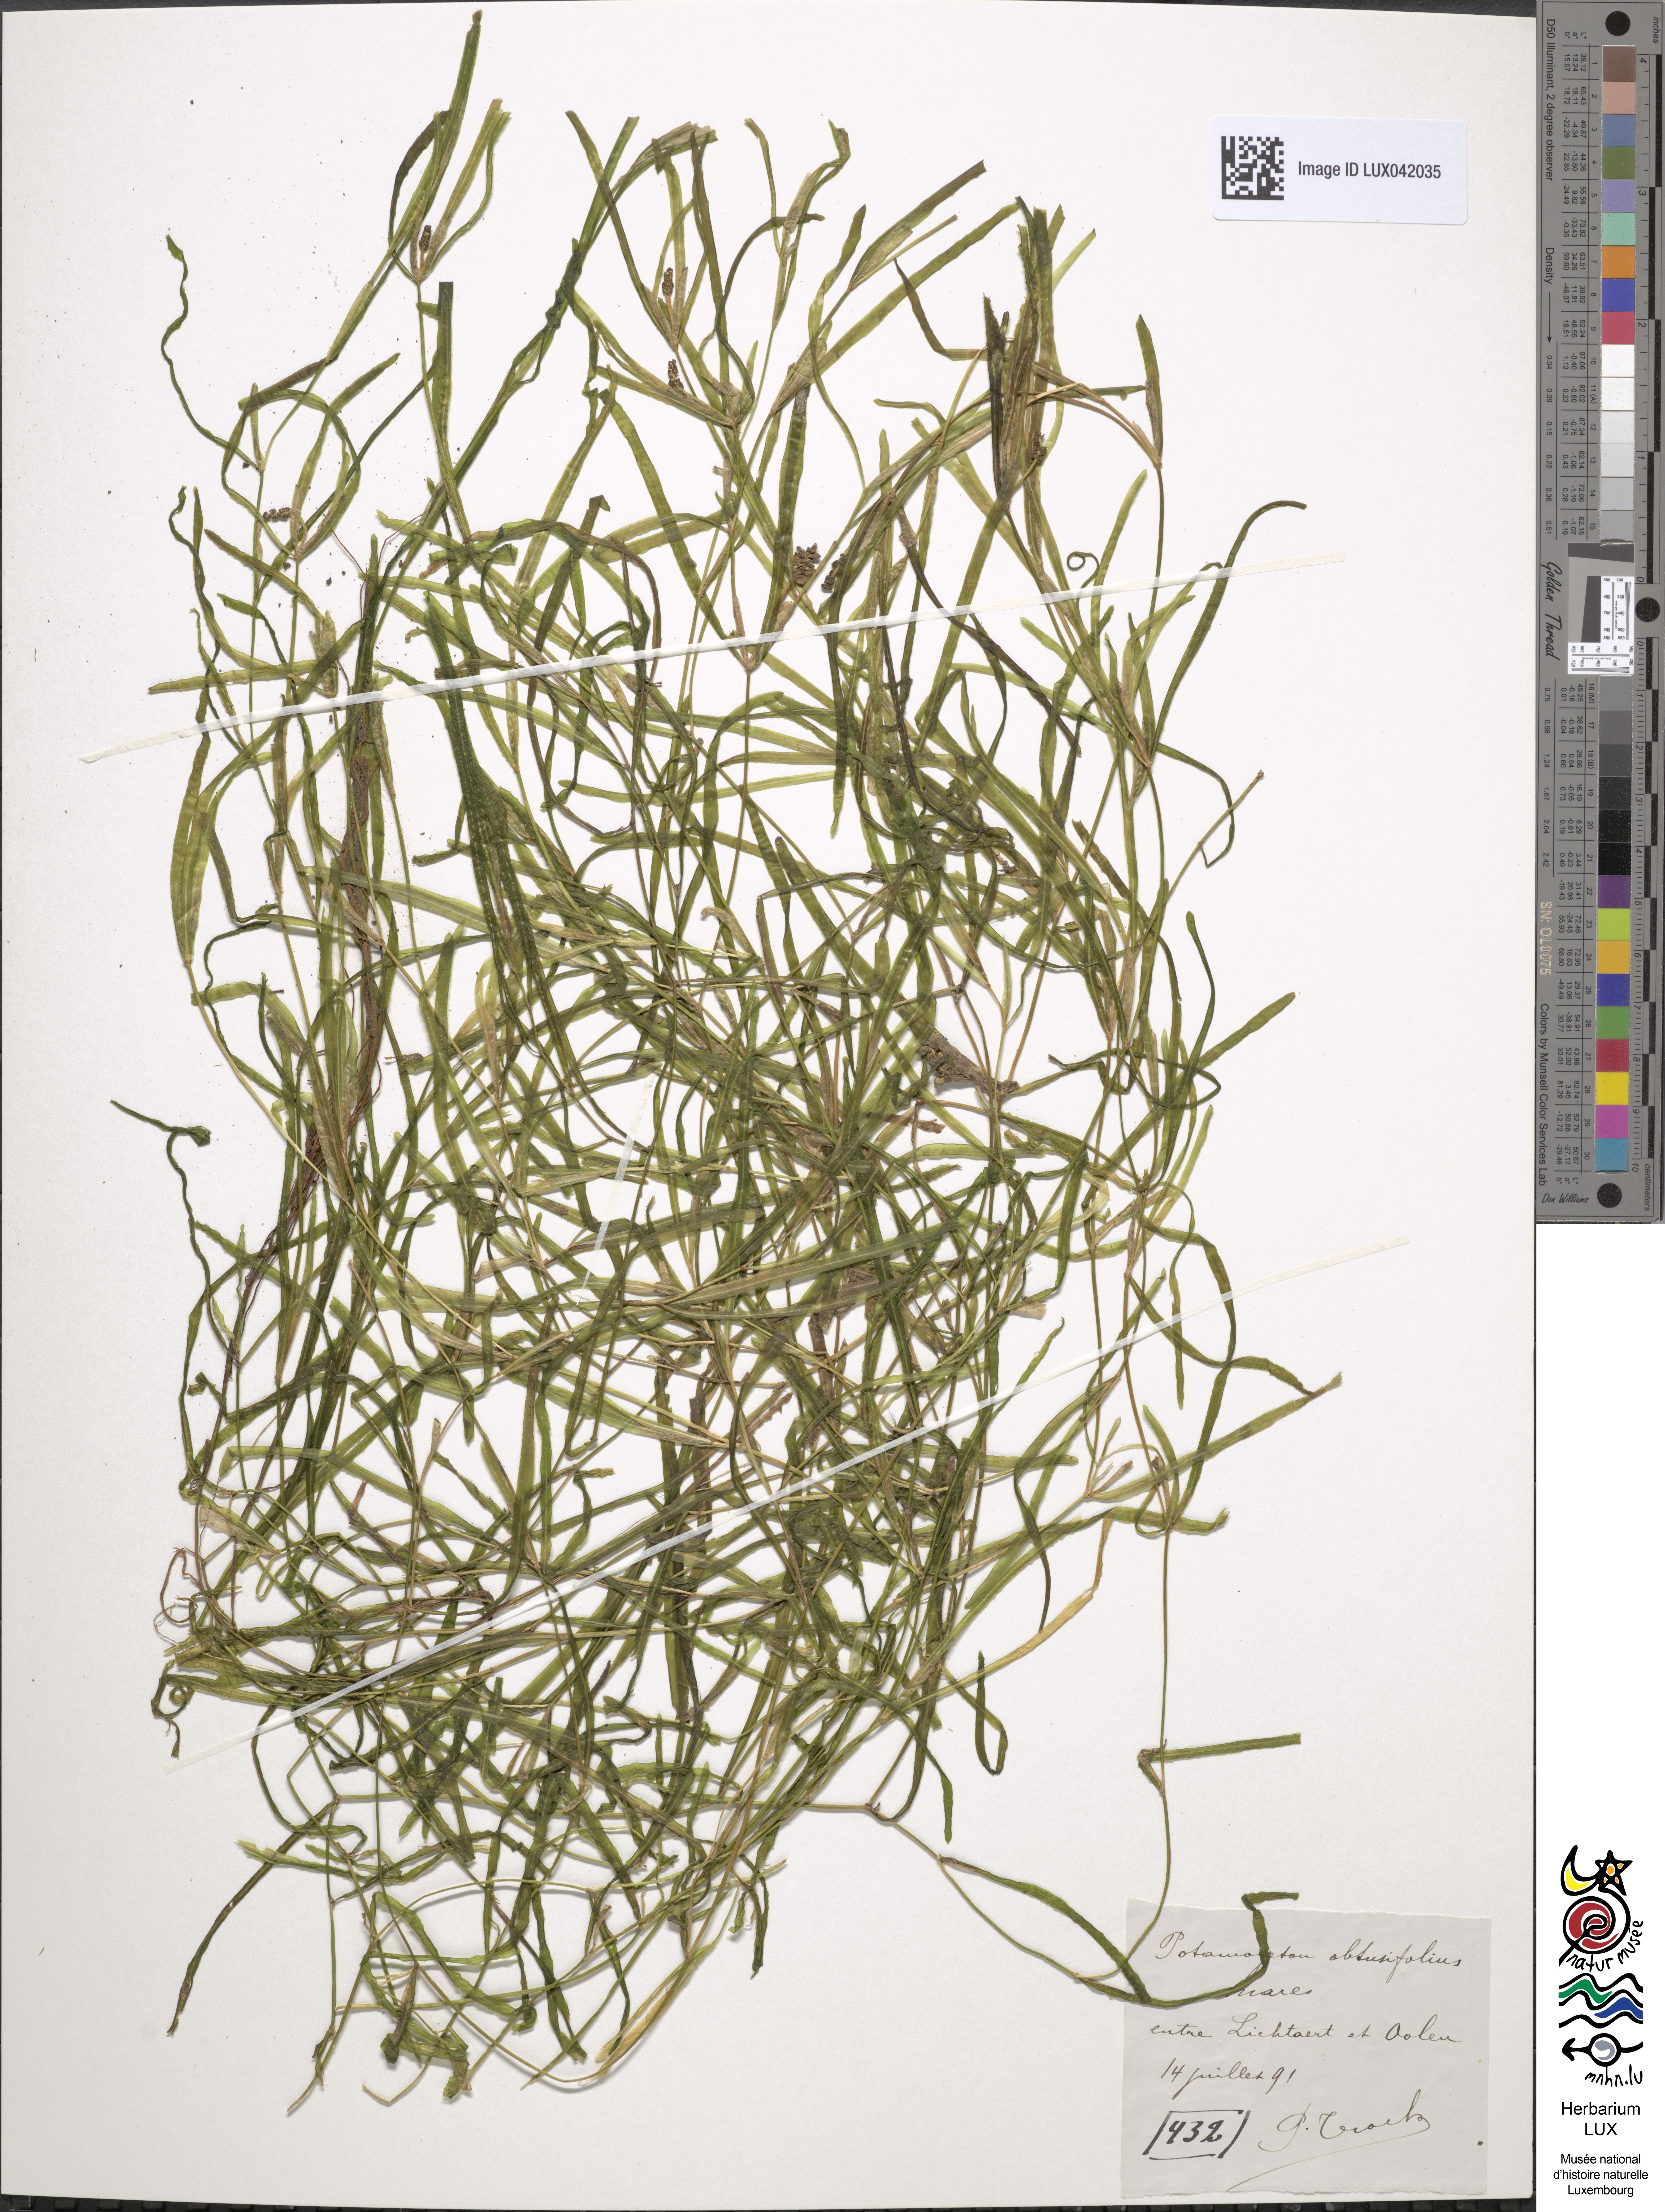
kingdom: Plantae
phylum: Tracheophyta
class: Liliopsida
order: Alismatales
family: Potamogetonaceae
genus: Potamogeton
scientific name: Potamogeton obtusifolius
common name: Blunt-leaved pondweed
